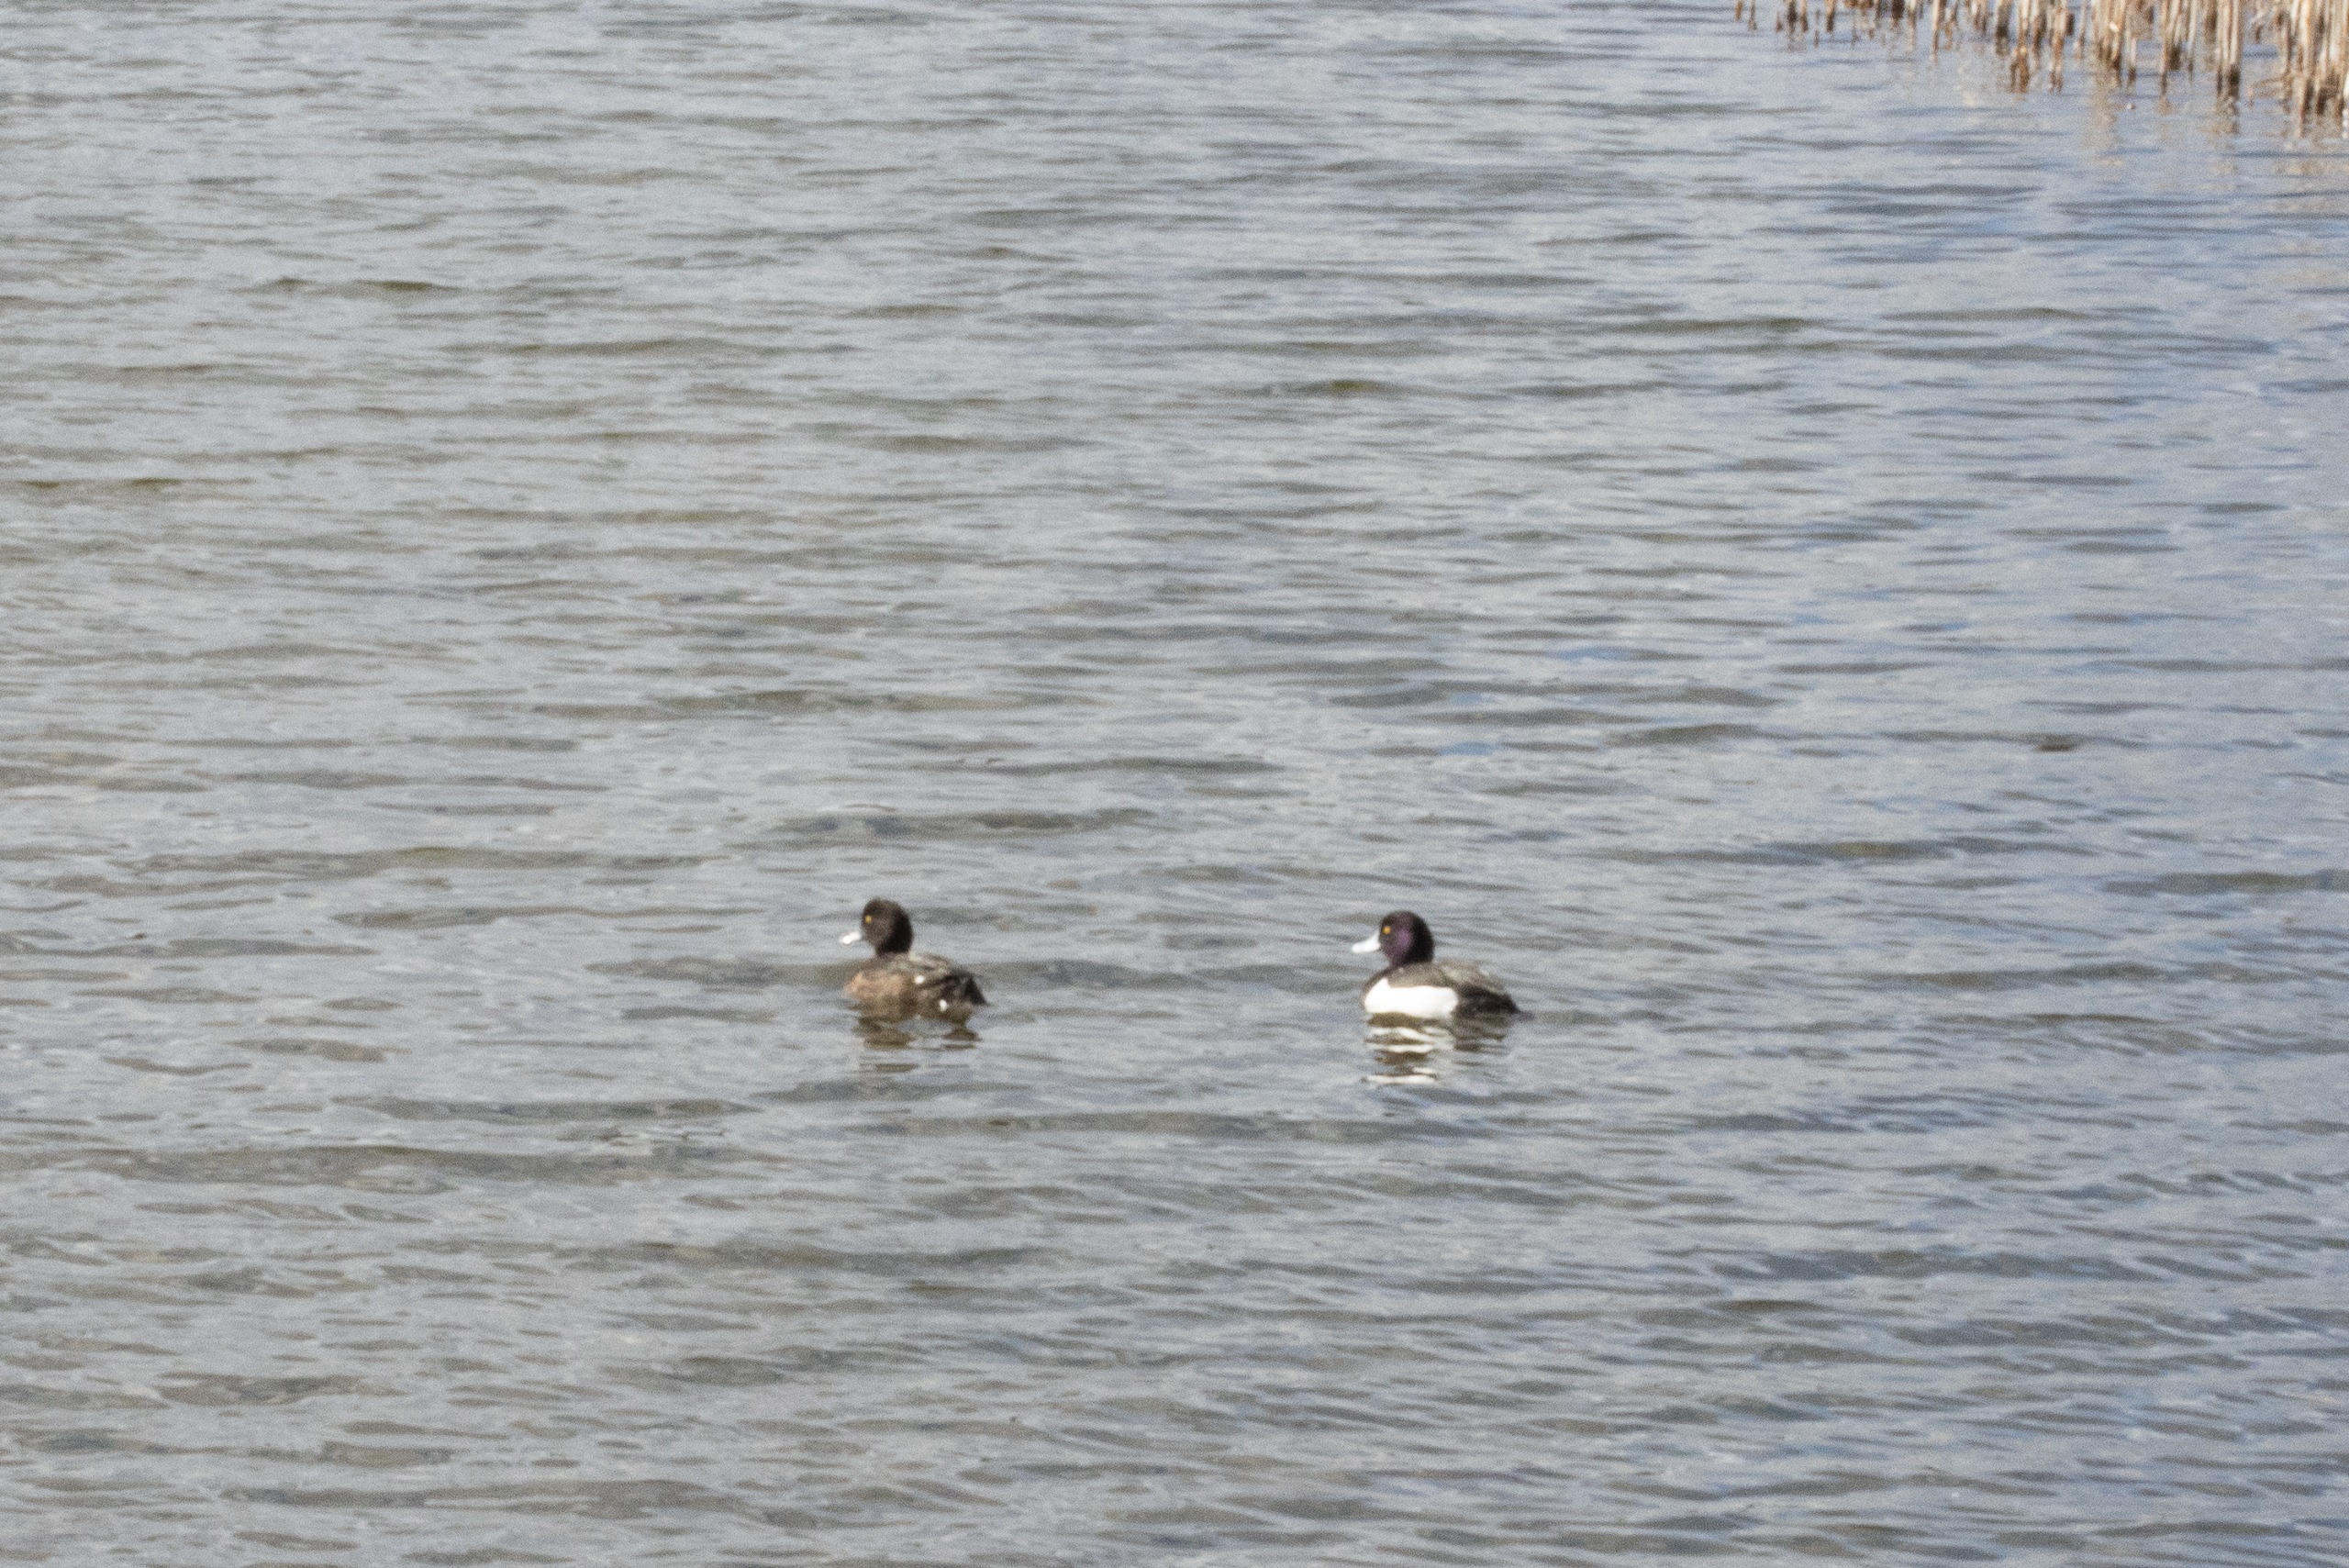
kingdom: Animalia
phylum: Chordata
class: Aves
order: Anseriformes
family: Anatidae
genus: Aythya
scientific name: Aythya fuligula
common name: Troldand
